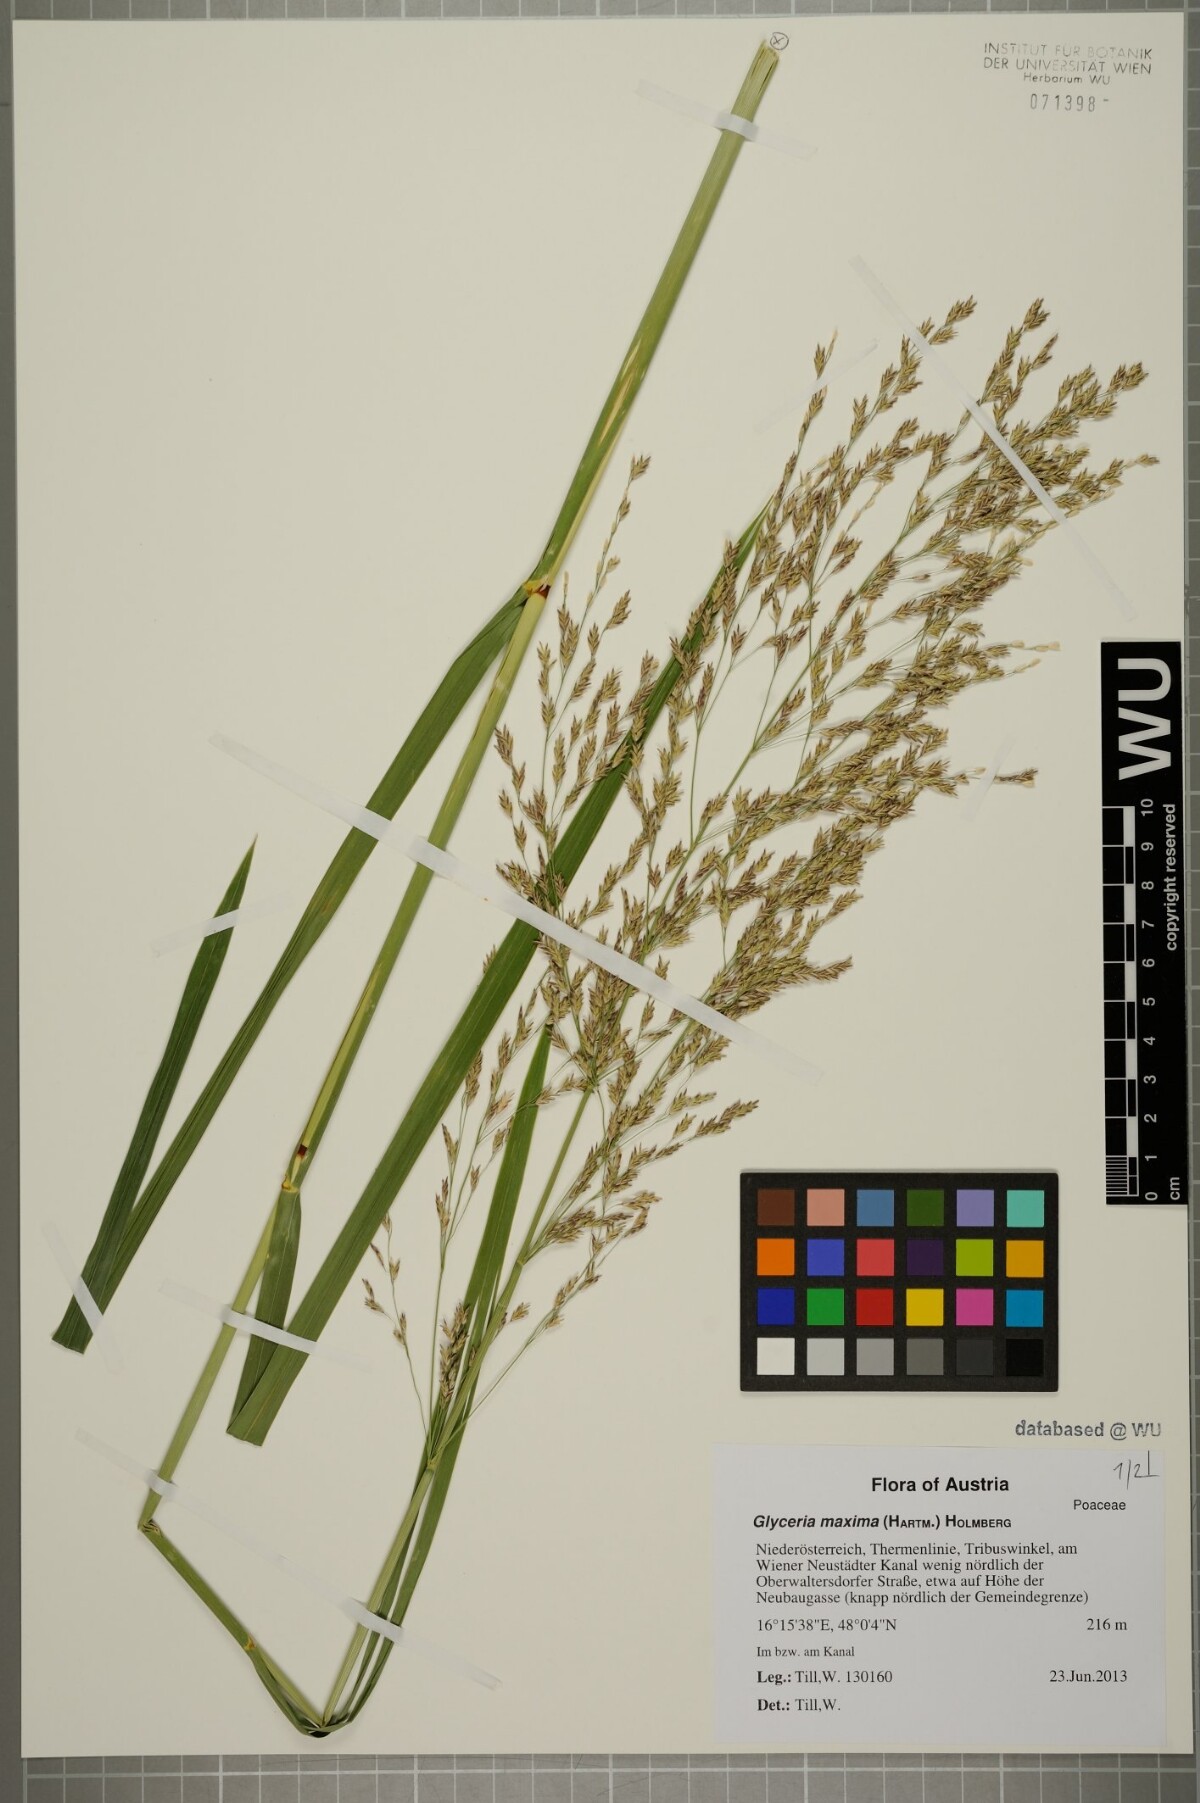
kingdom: Plantae
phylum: Tracheophyta
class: Liliopsida
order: Poales
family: Poaceae
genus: Glyceria
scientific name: Glyceria maxima
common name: Reed mannagrass
